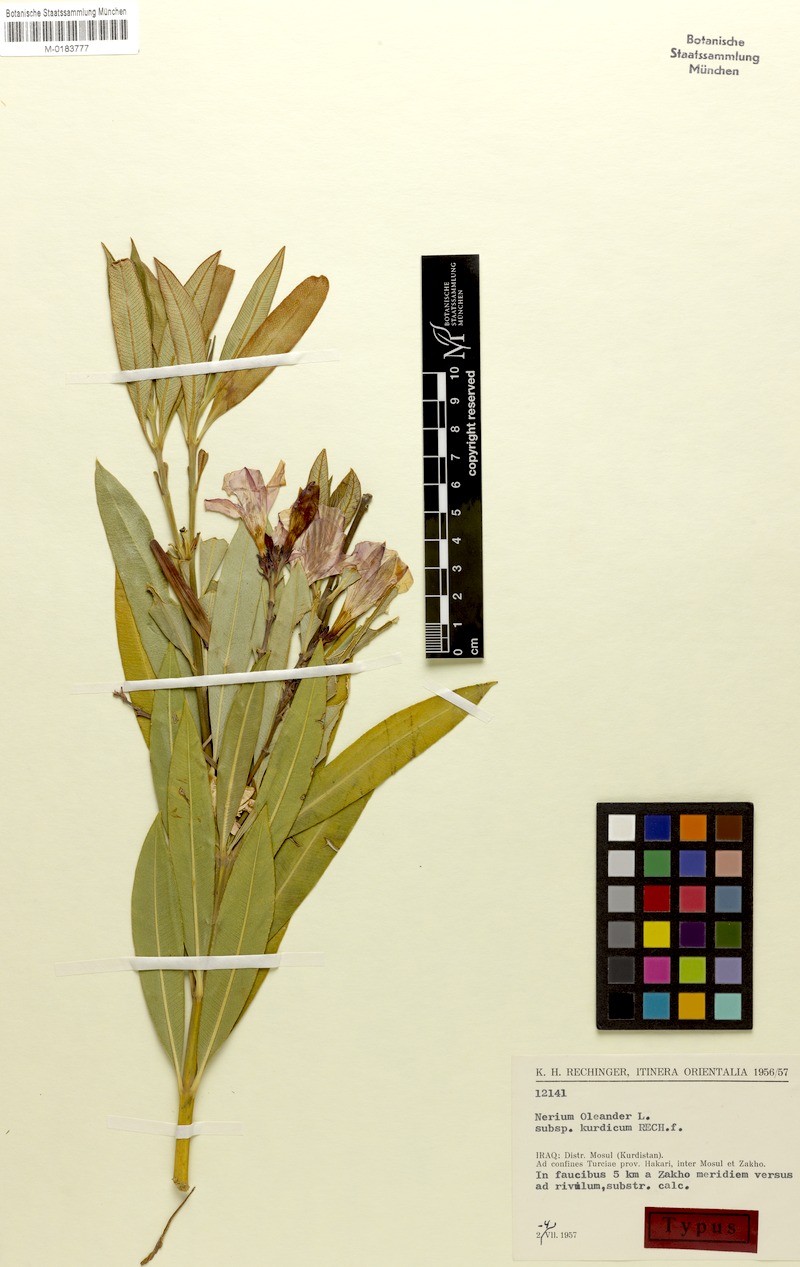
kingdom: Plantae
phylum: Tracheophyta
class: Magnoliopsida
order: Gentianales
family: Apocynaceae
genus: Nerium
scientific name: Nerium oleander
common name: Oleander
